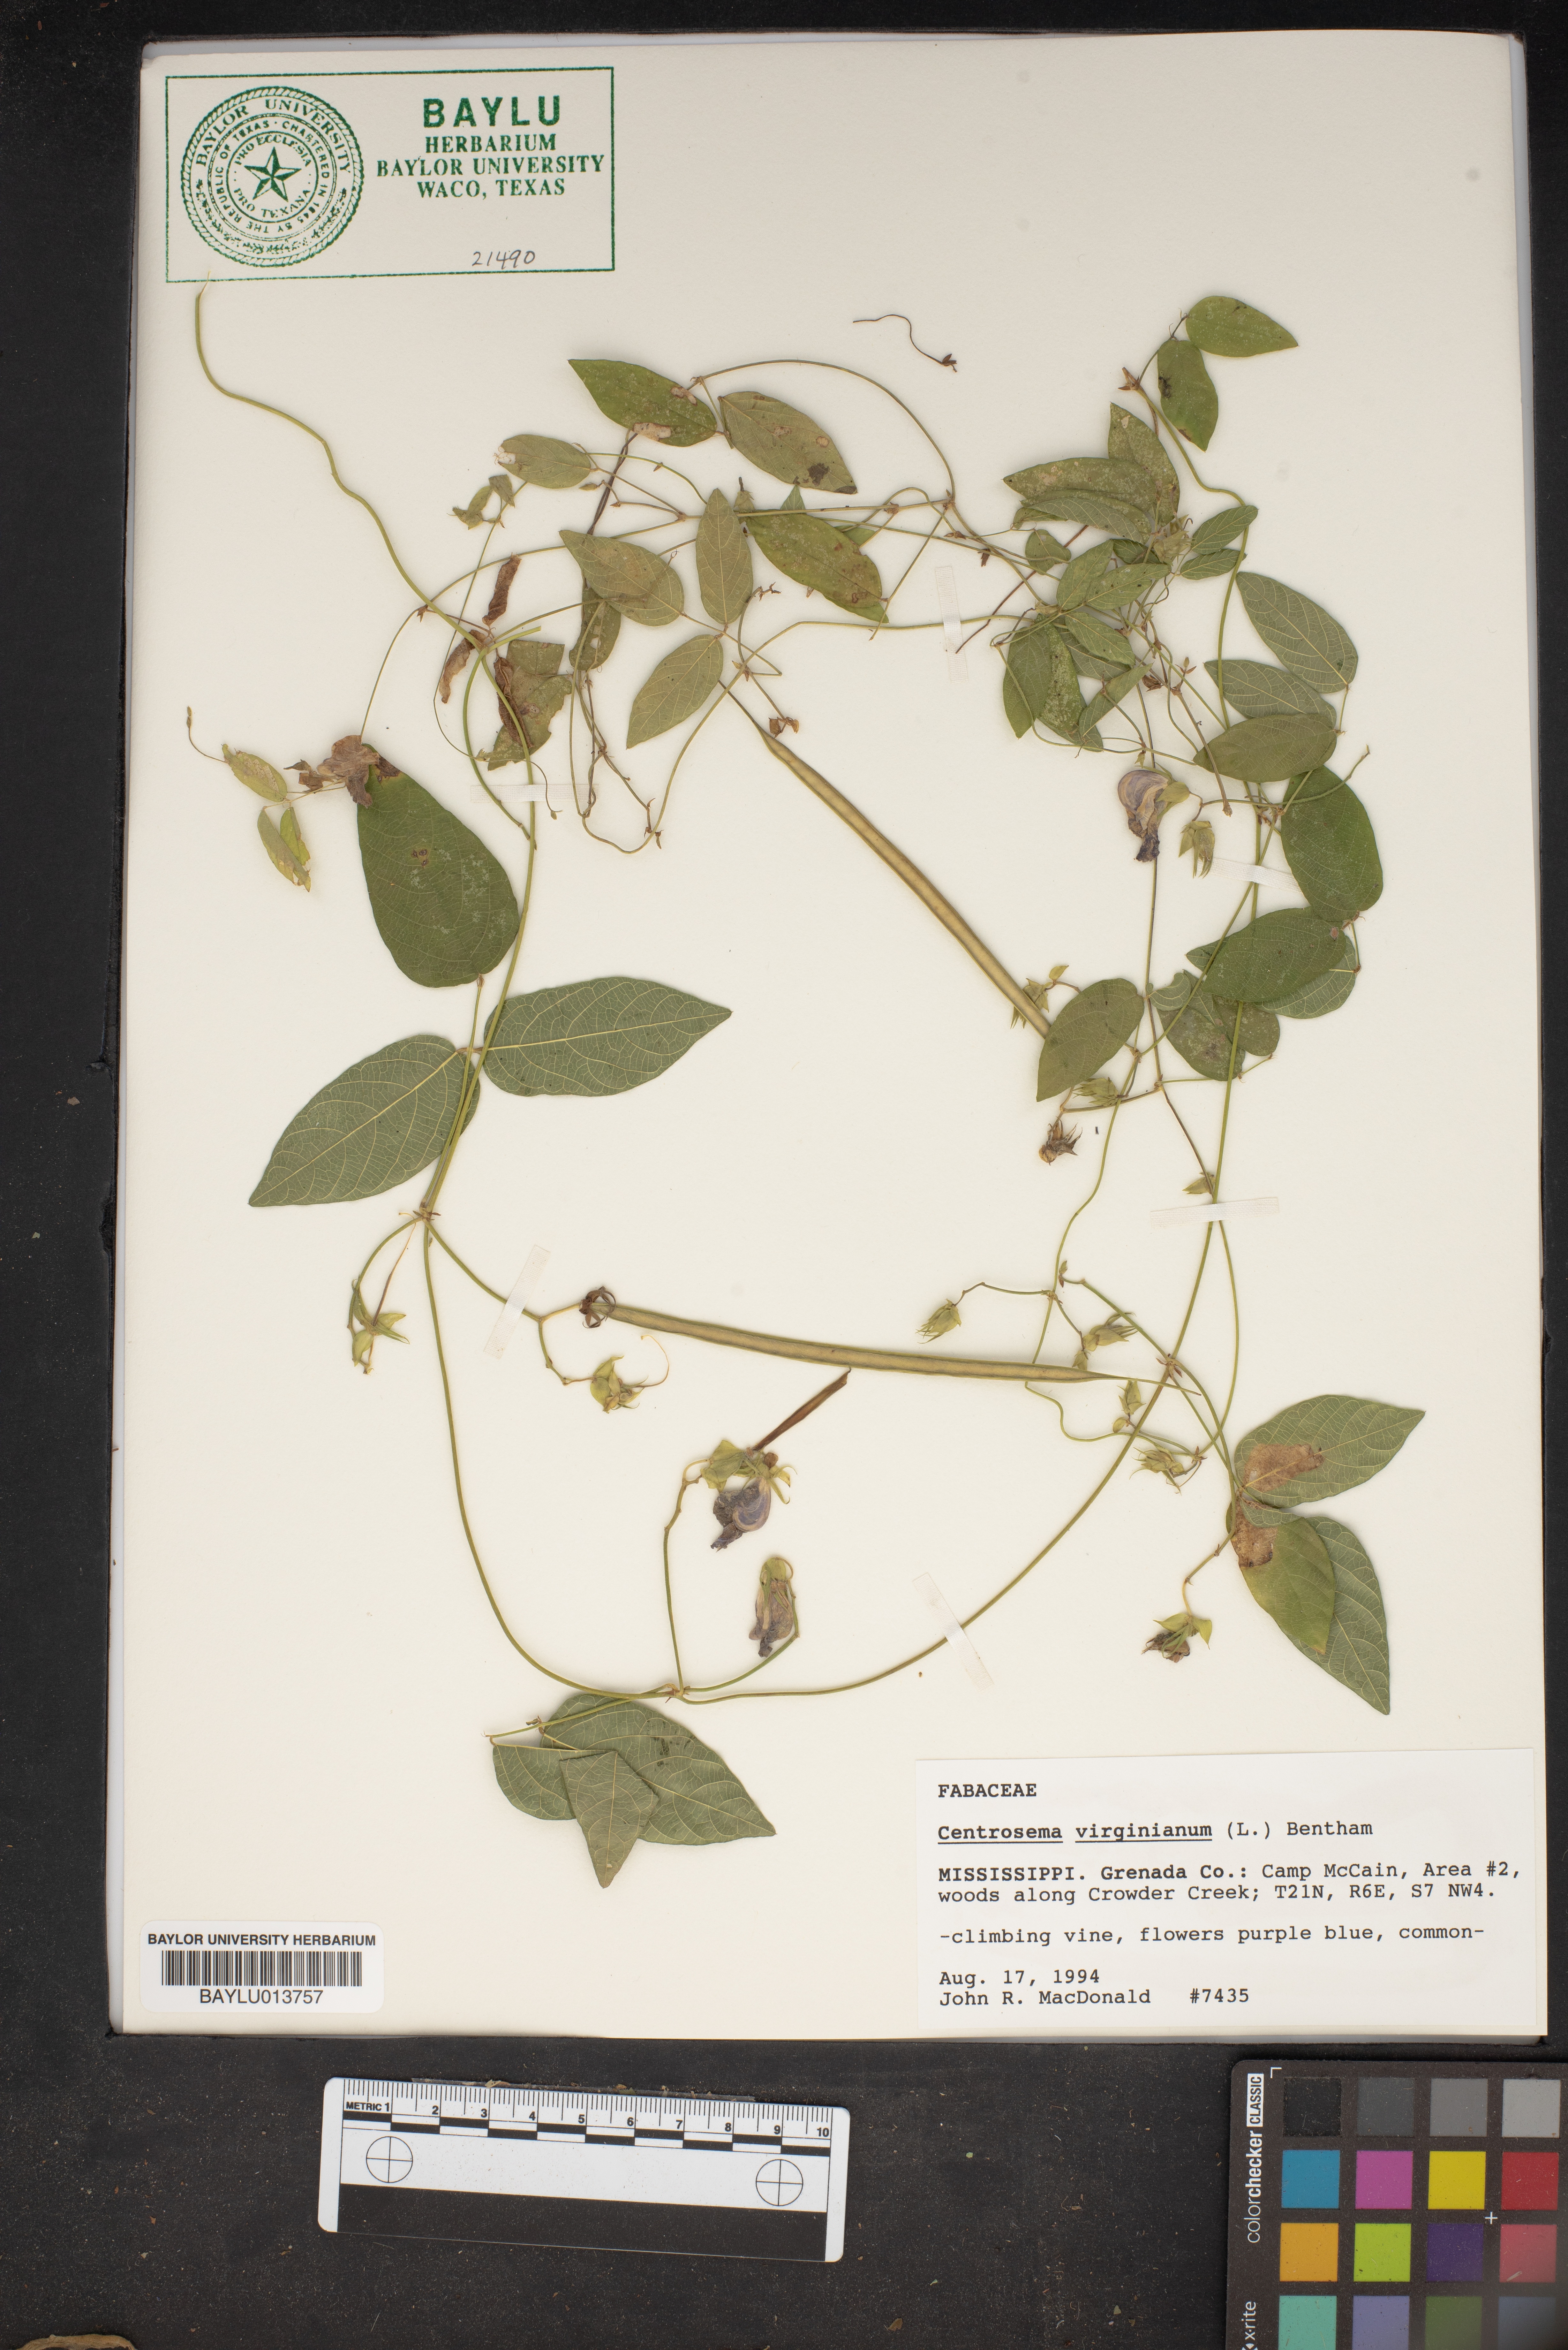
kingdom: Plantae
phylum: Tracheophyta
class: Magnoliopsida
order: Fabales
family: Fabaceae
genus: Centrosema
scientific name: Centrosema virginianum
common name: Butterfly-pea
